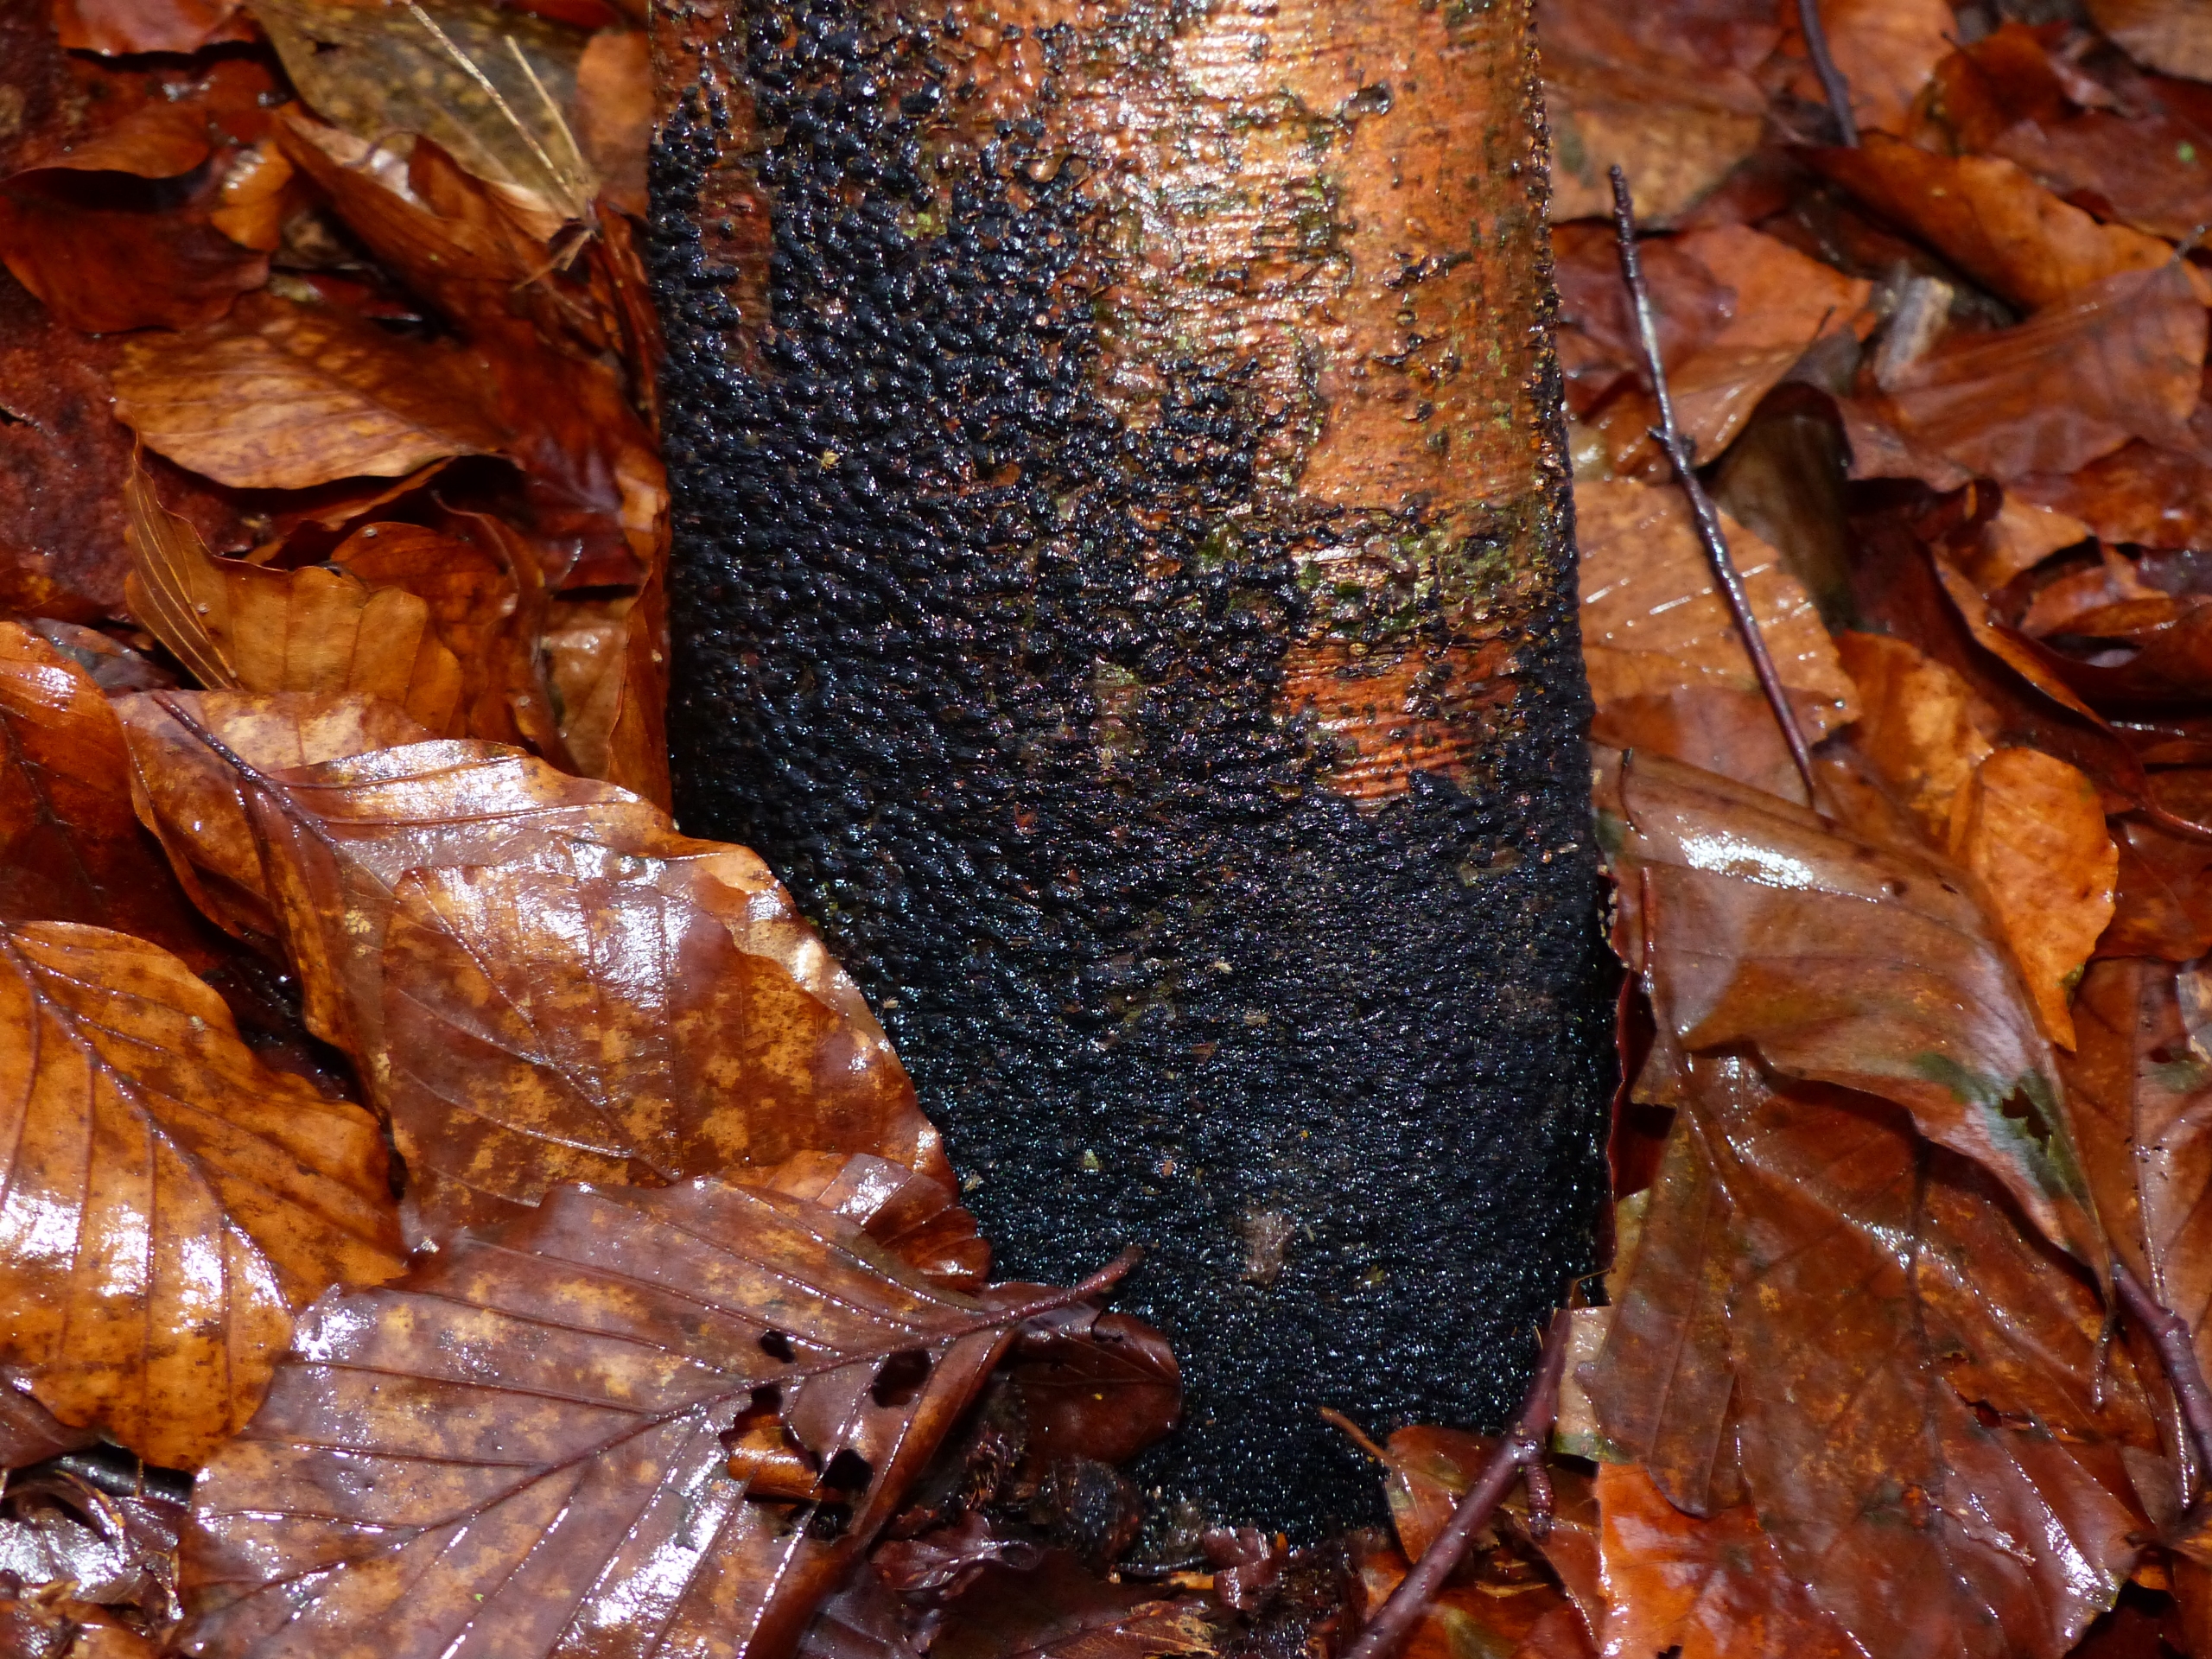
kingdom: Fungi
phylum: Ascomycota
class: Sordariomycetes
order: Xylariales
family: Melogrammataceae
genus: Melogramma
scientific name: Melogramma spiniferum
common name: Bøgefod-kulhals
